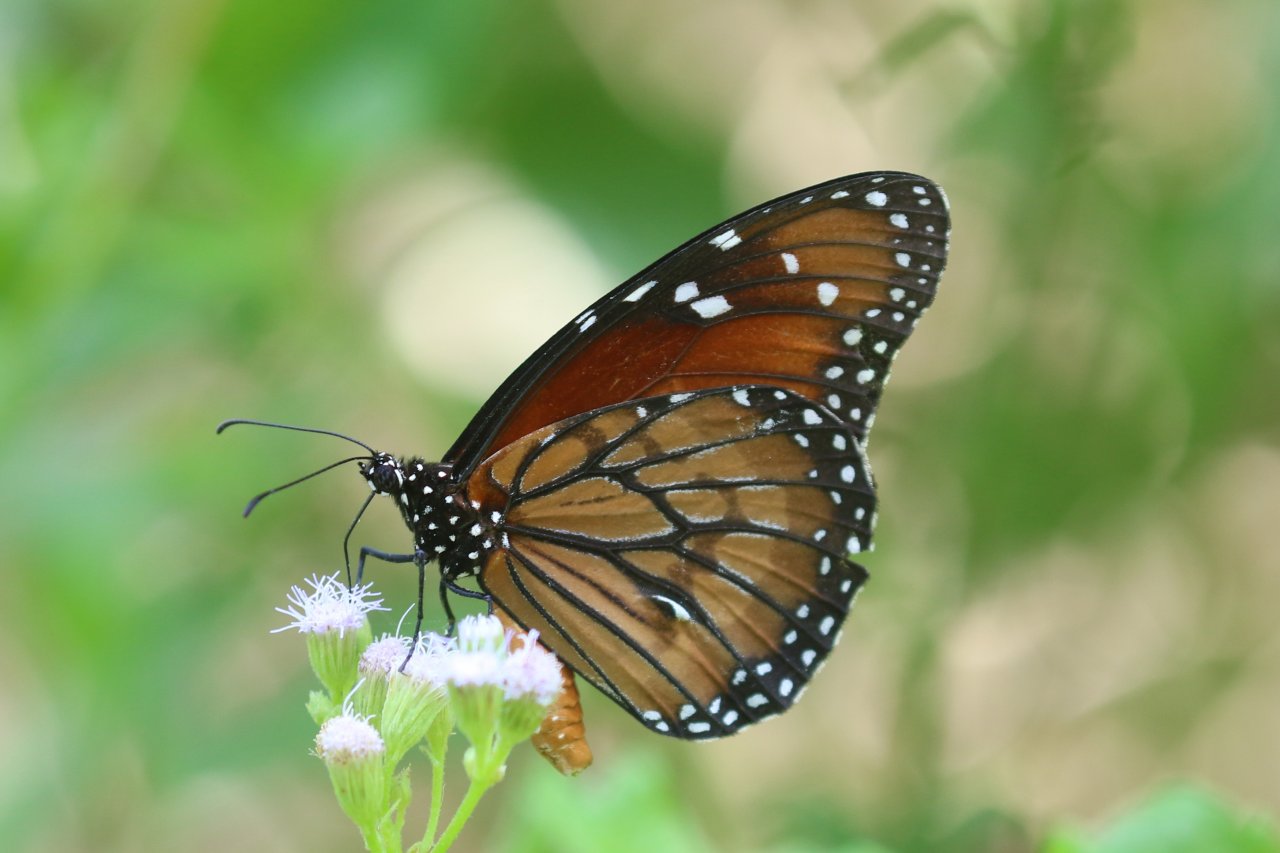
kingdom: Animalia
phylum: Arthropoda
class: Insecta
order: Lepidoptera
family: Nymphalidae
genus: Danaus
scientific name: Danaus eresimus
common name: Soldier
